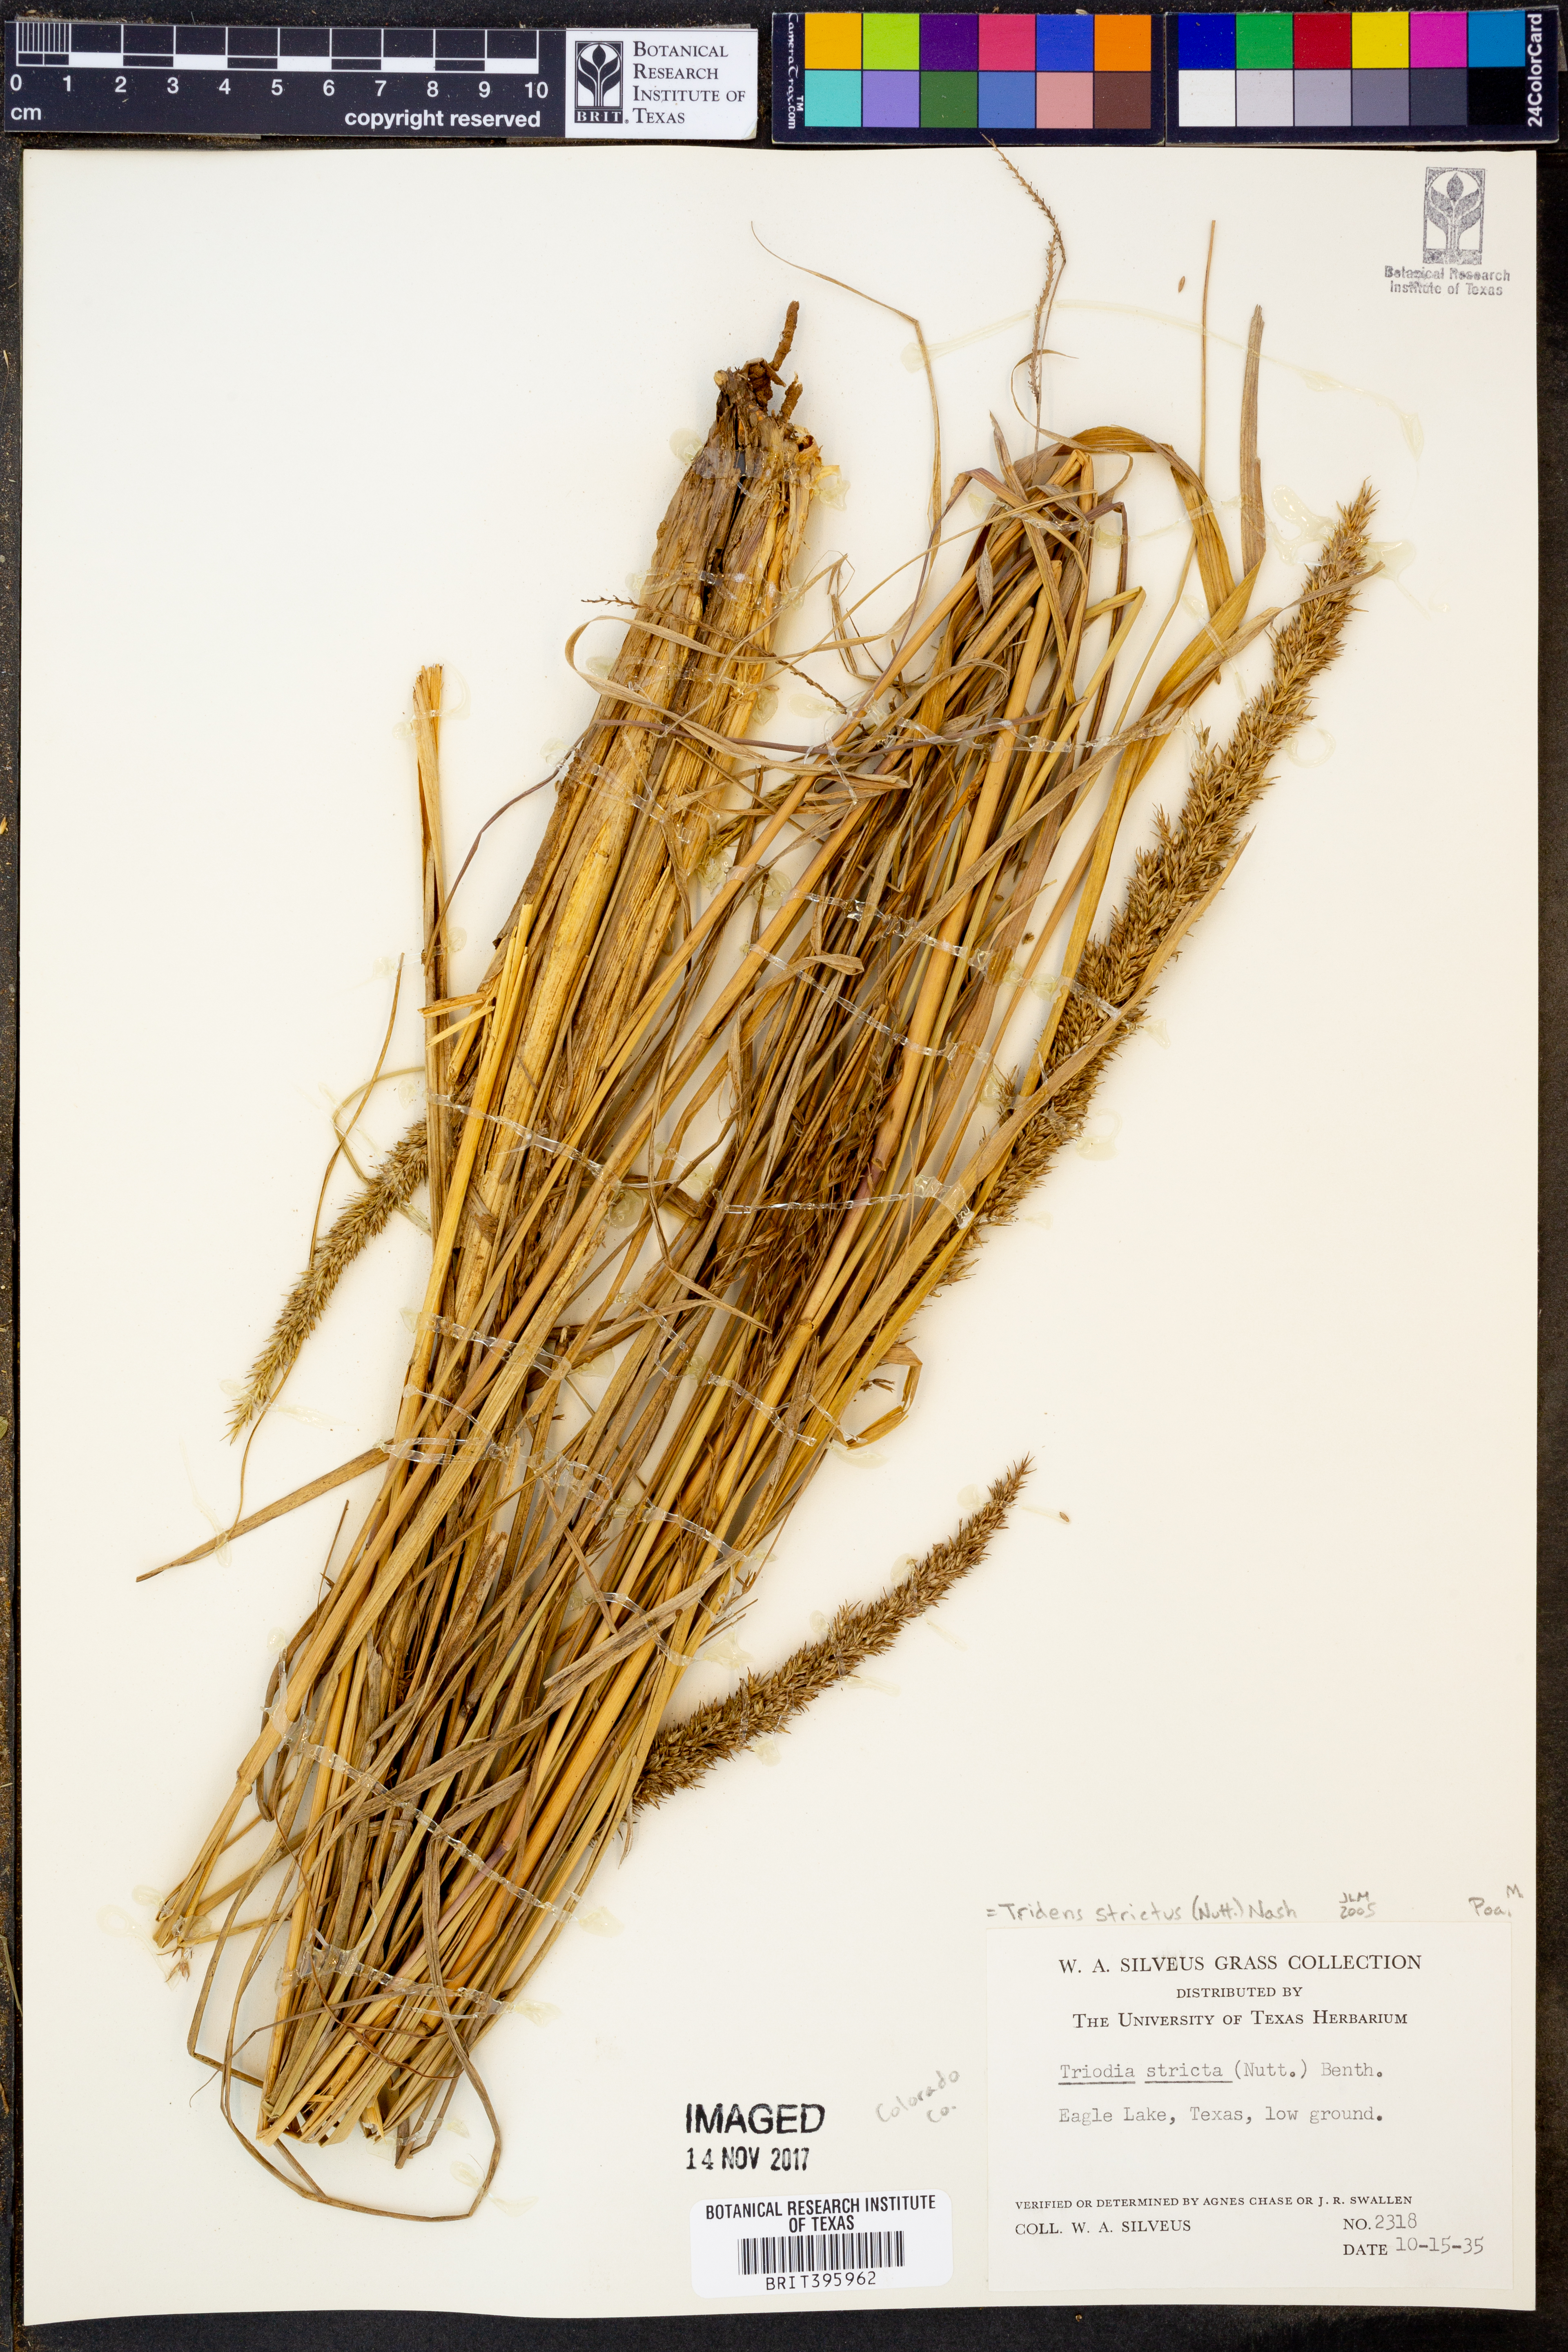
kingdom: Plantae
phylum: Tracheophyta
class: Liliopsida
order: Poales
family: Poaceae
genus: Tridens
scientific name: Tridens strictus
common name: Long-spike tridens
